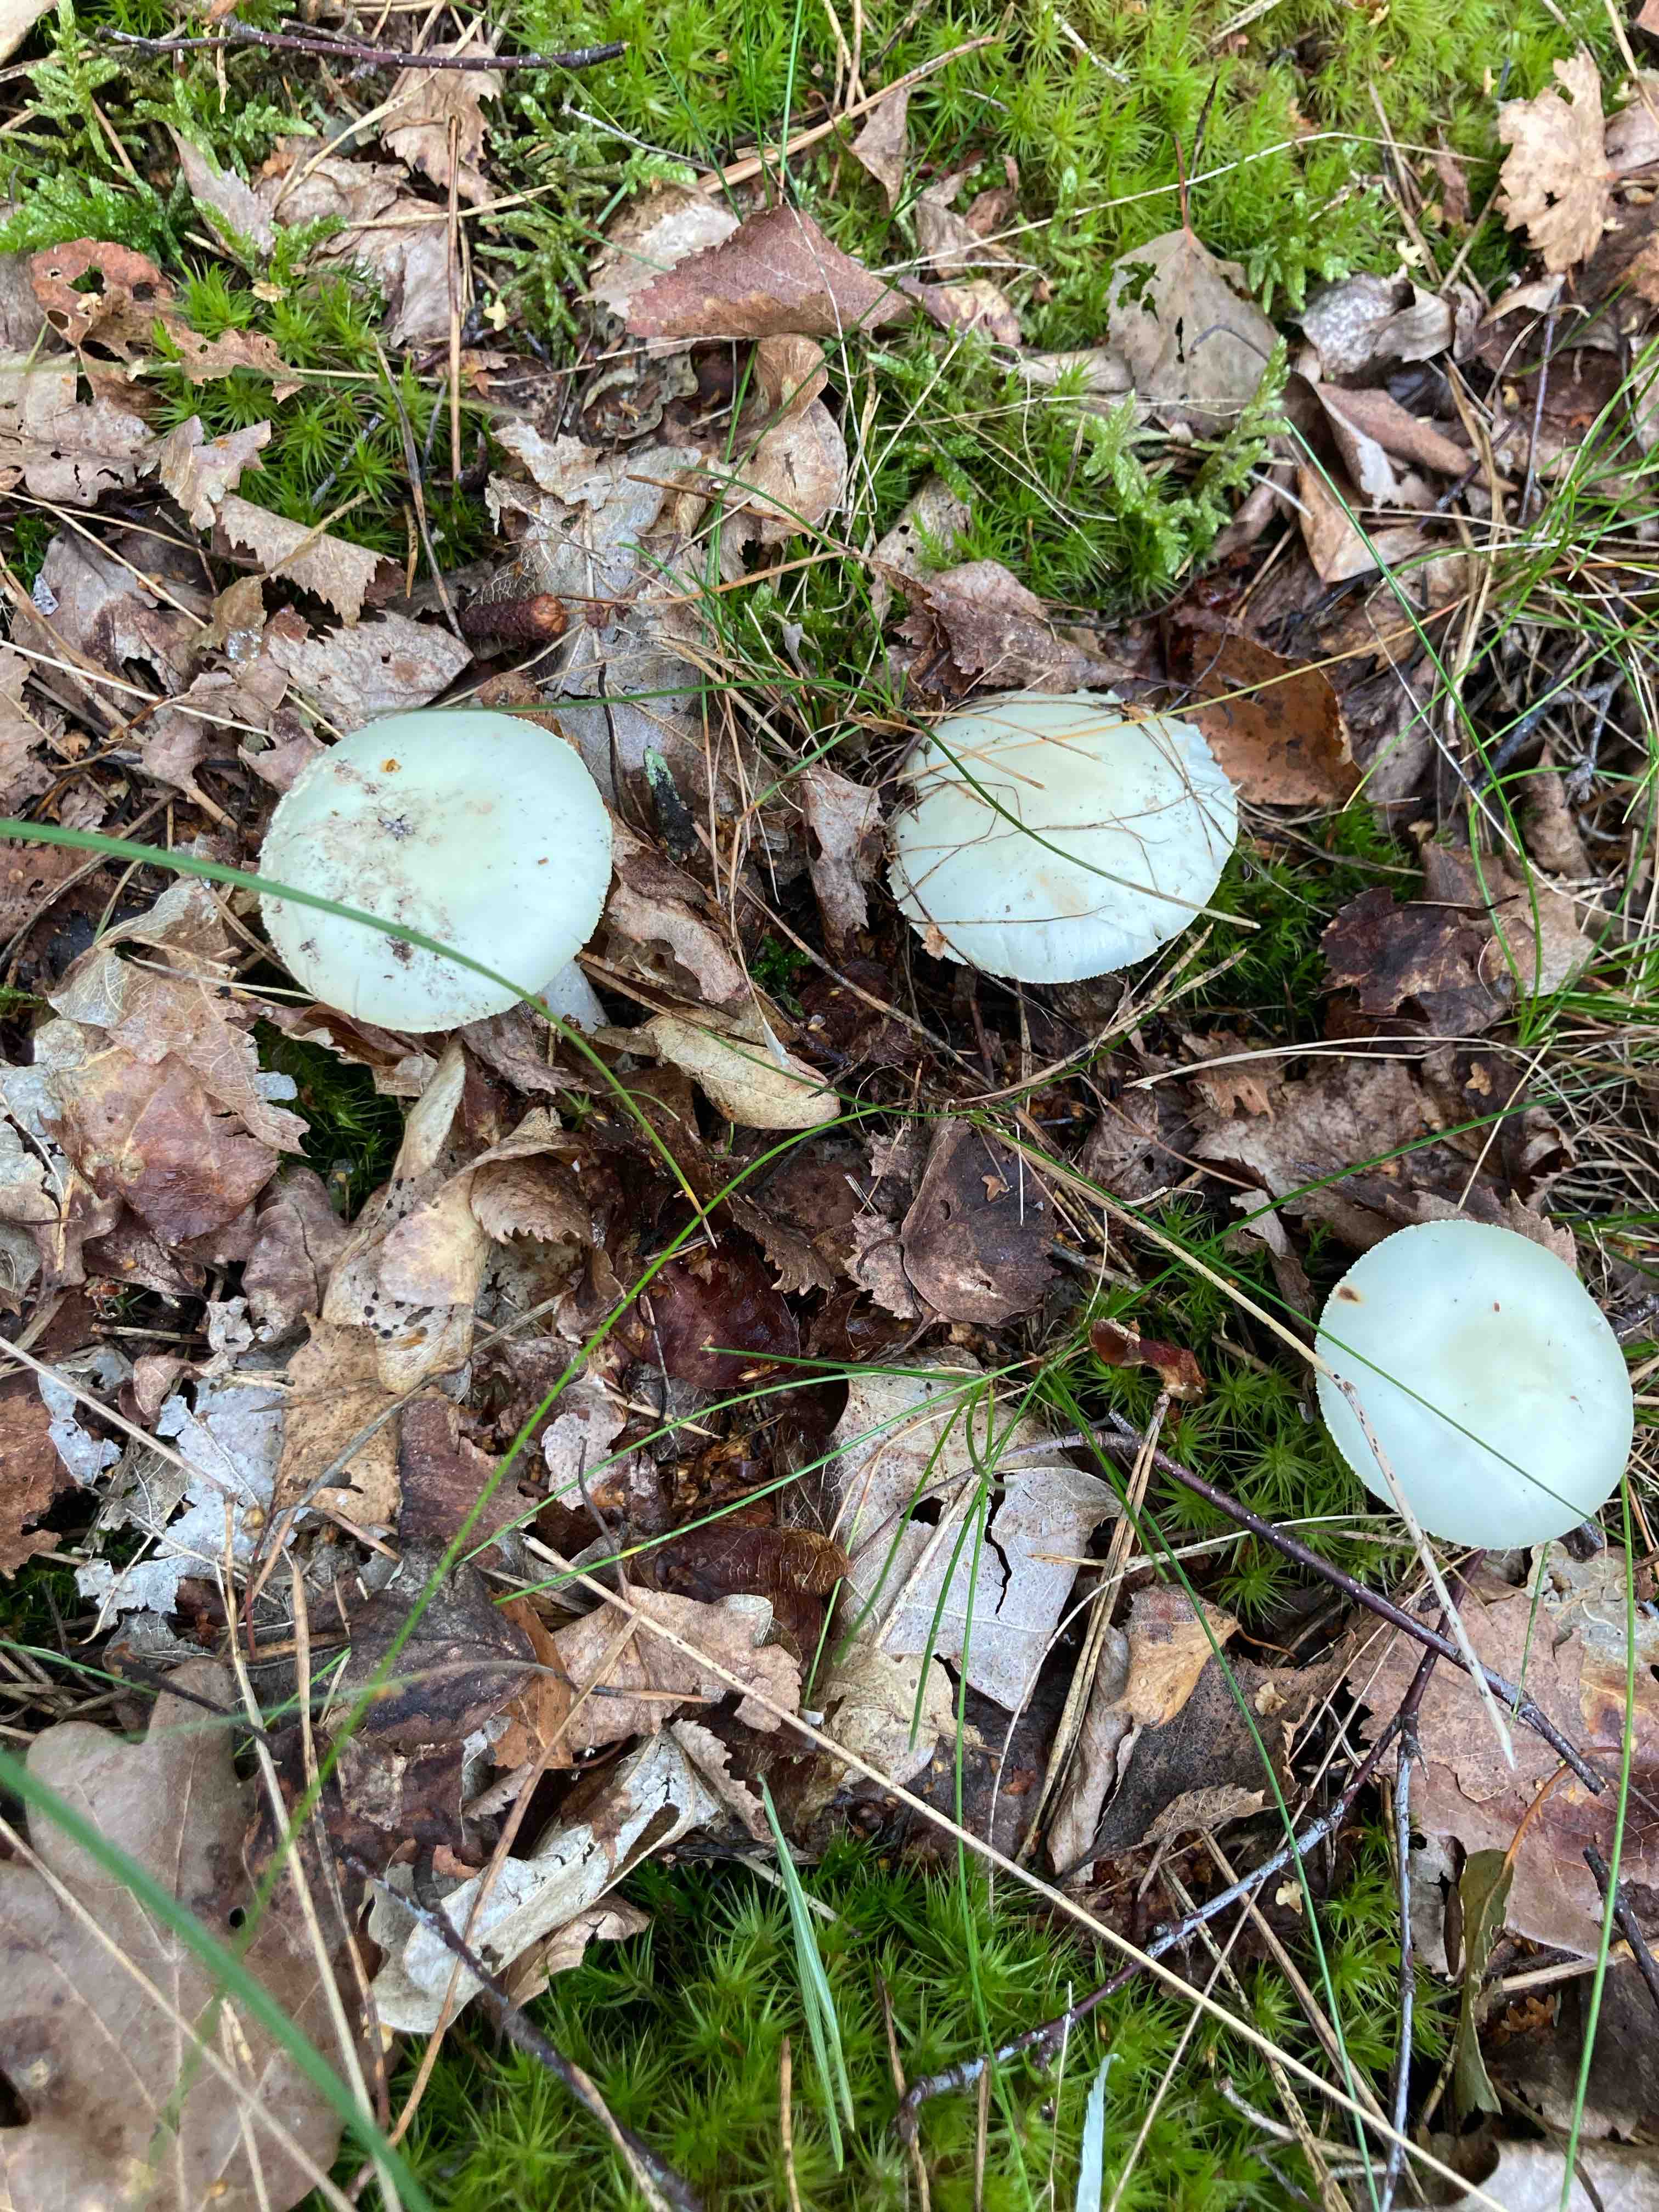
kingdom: Fungi
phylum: Basidiomycota
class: Agaricomycetes
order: Agaricales
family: Amanitaceae
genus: Amanita
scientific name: Amanita citrina
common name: kugleknoldet fluesvamp
